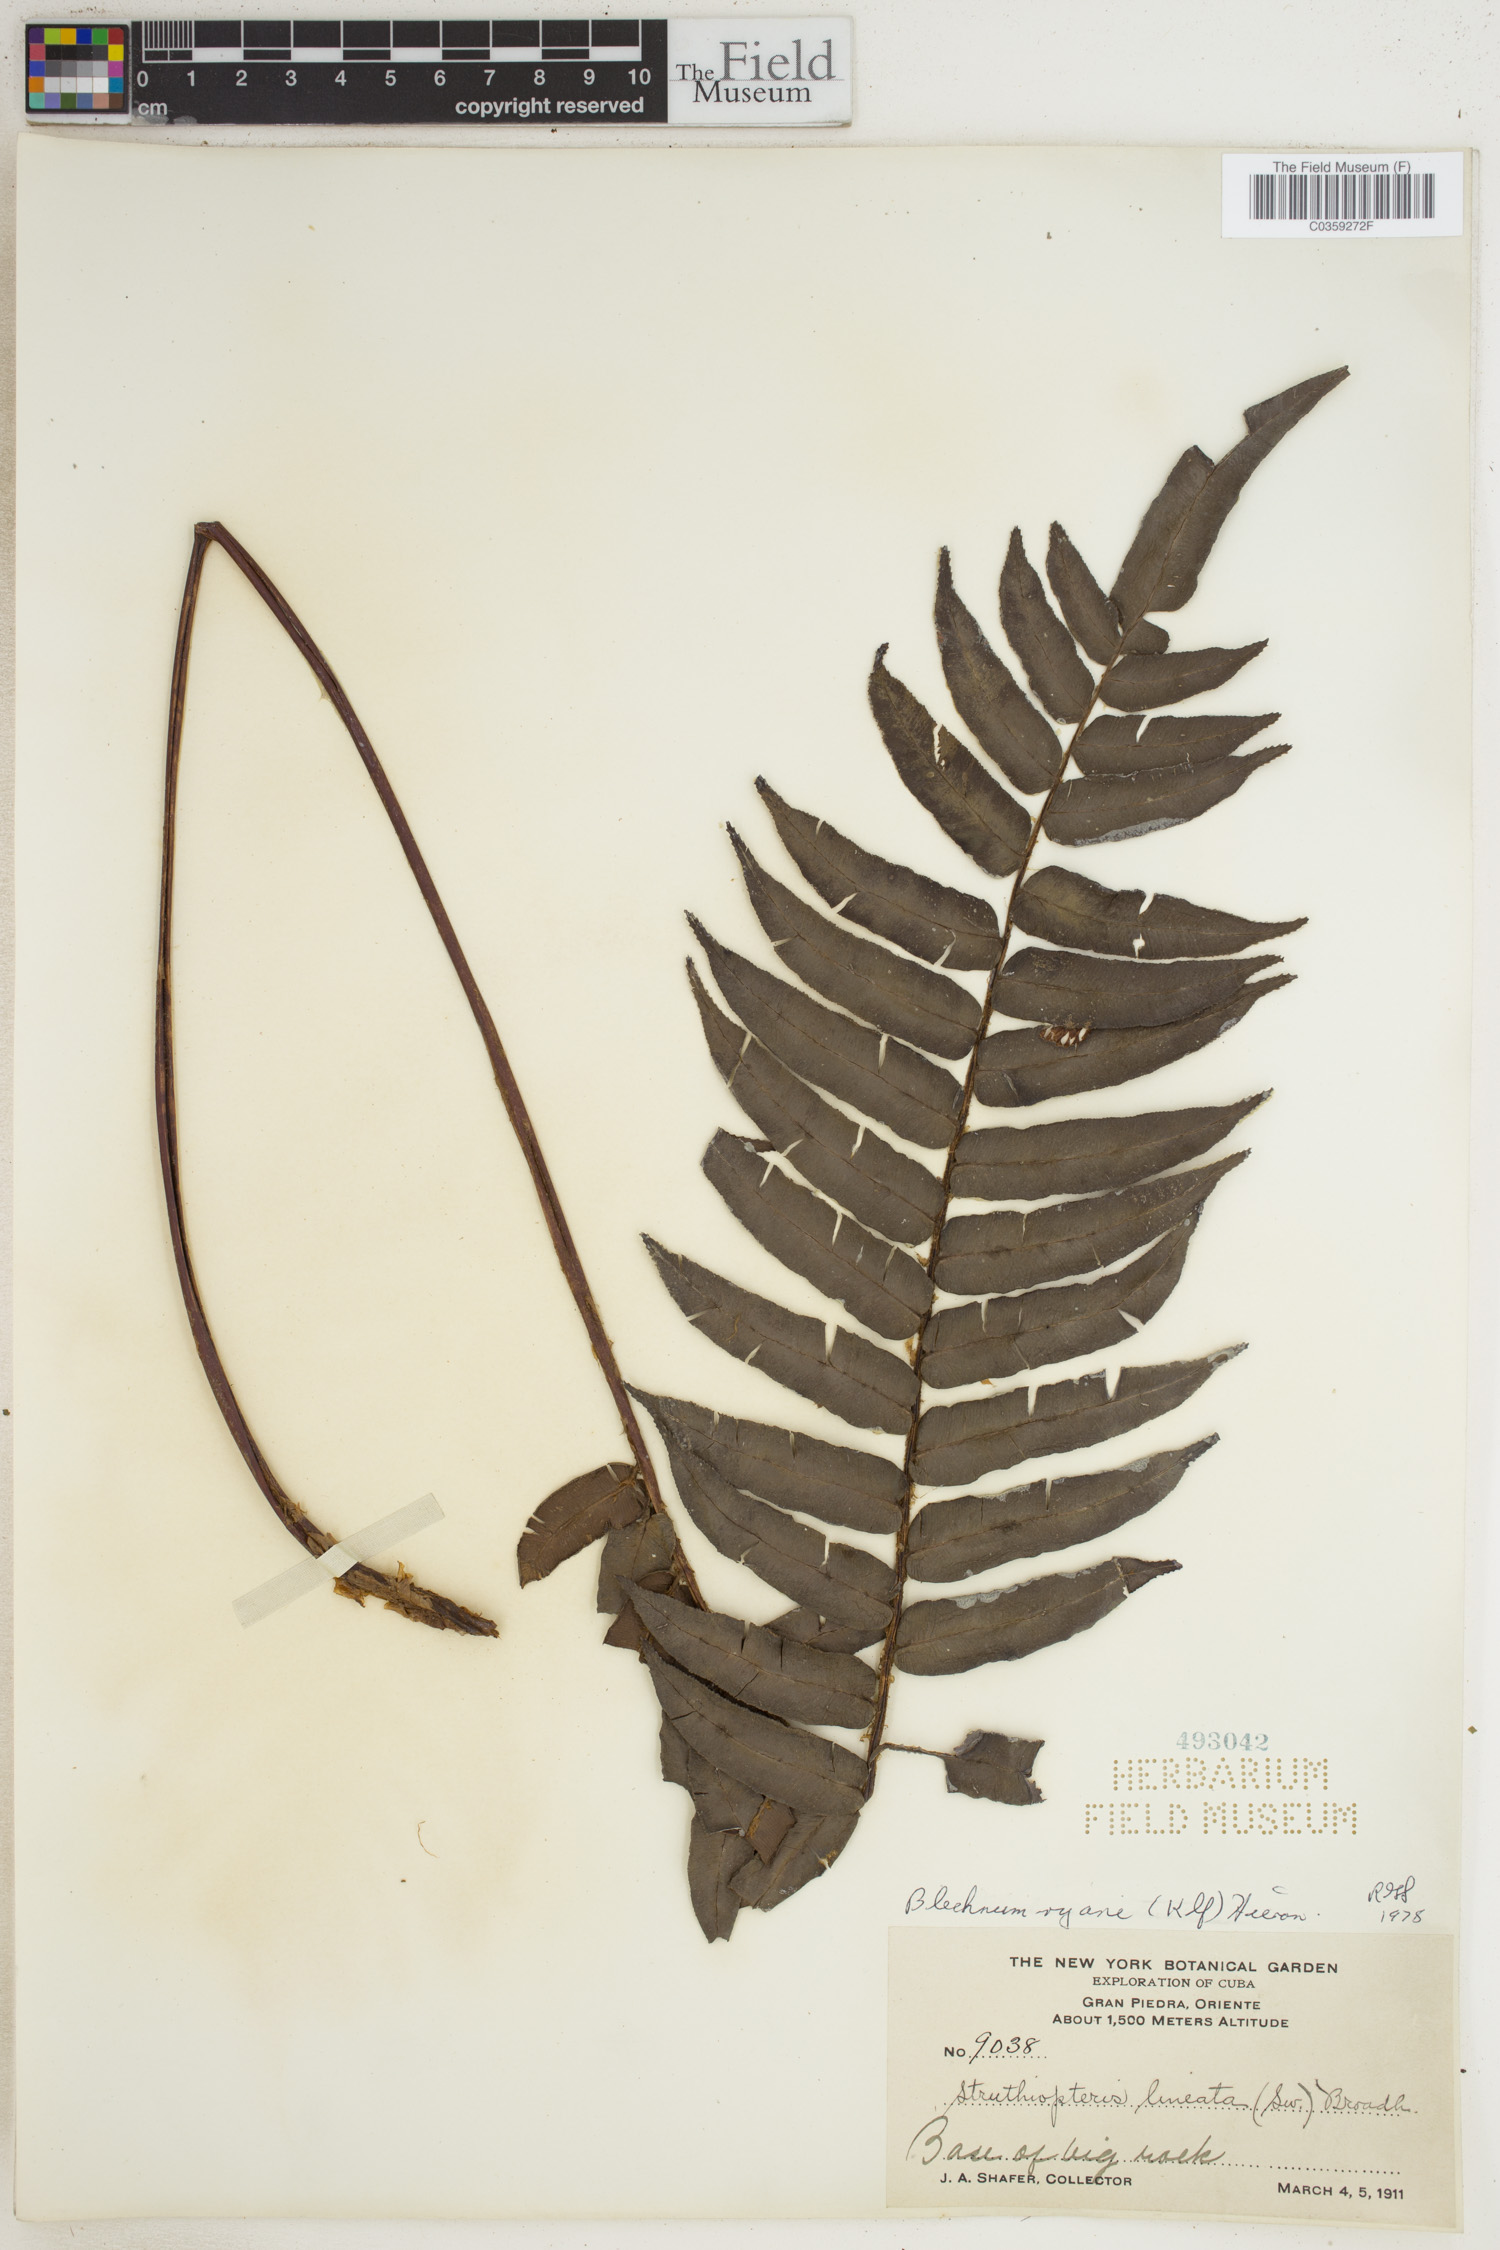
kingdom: Plantae
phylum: Tracheophyta
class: Polypodiopsida
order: Polypodiales
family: Blechnaceae
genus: Parablechnum
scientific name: Parablechnum ryanii
